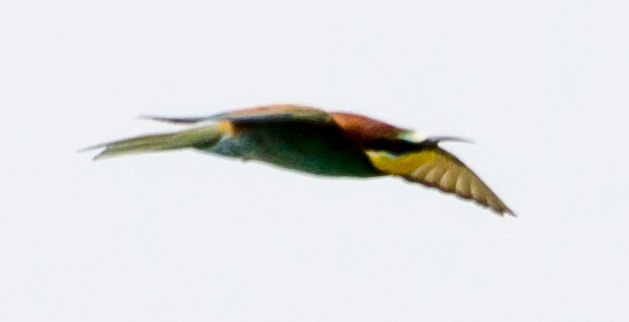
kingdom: Animalia
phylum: Chordata
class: Aves
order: Coraciiformes
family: Meropidae
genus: Merops
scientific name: Merops apiaster
